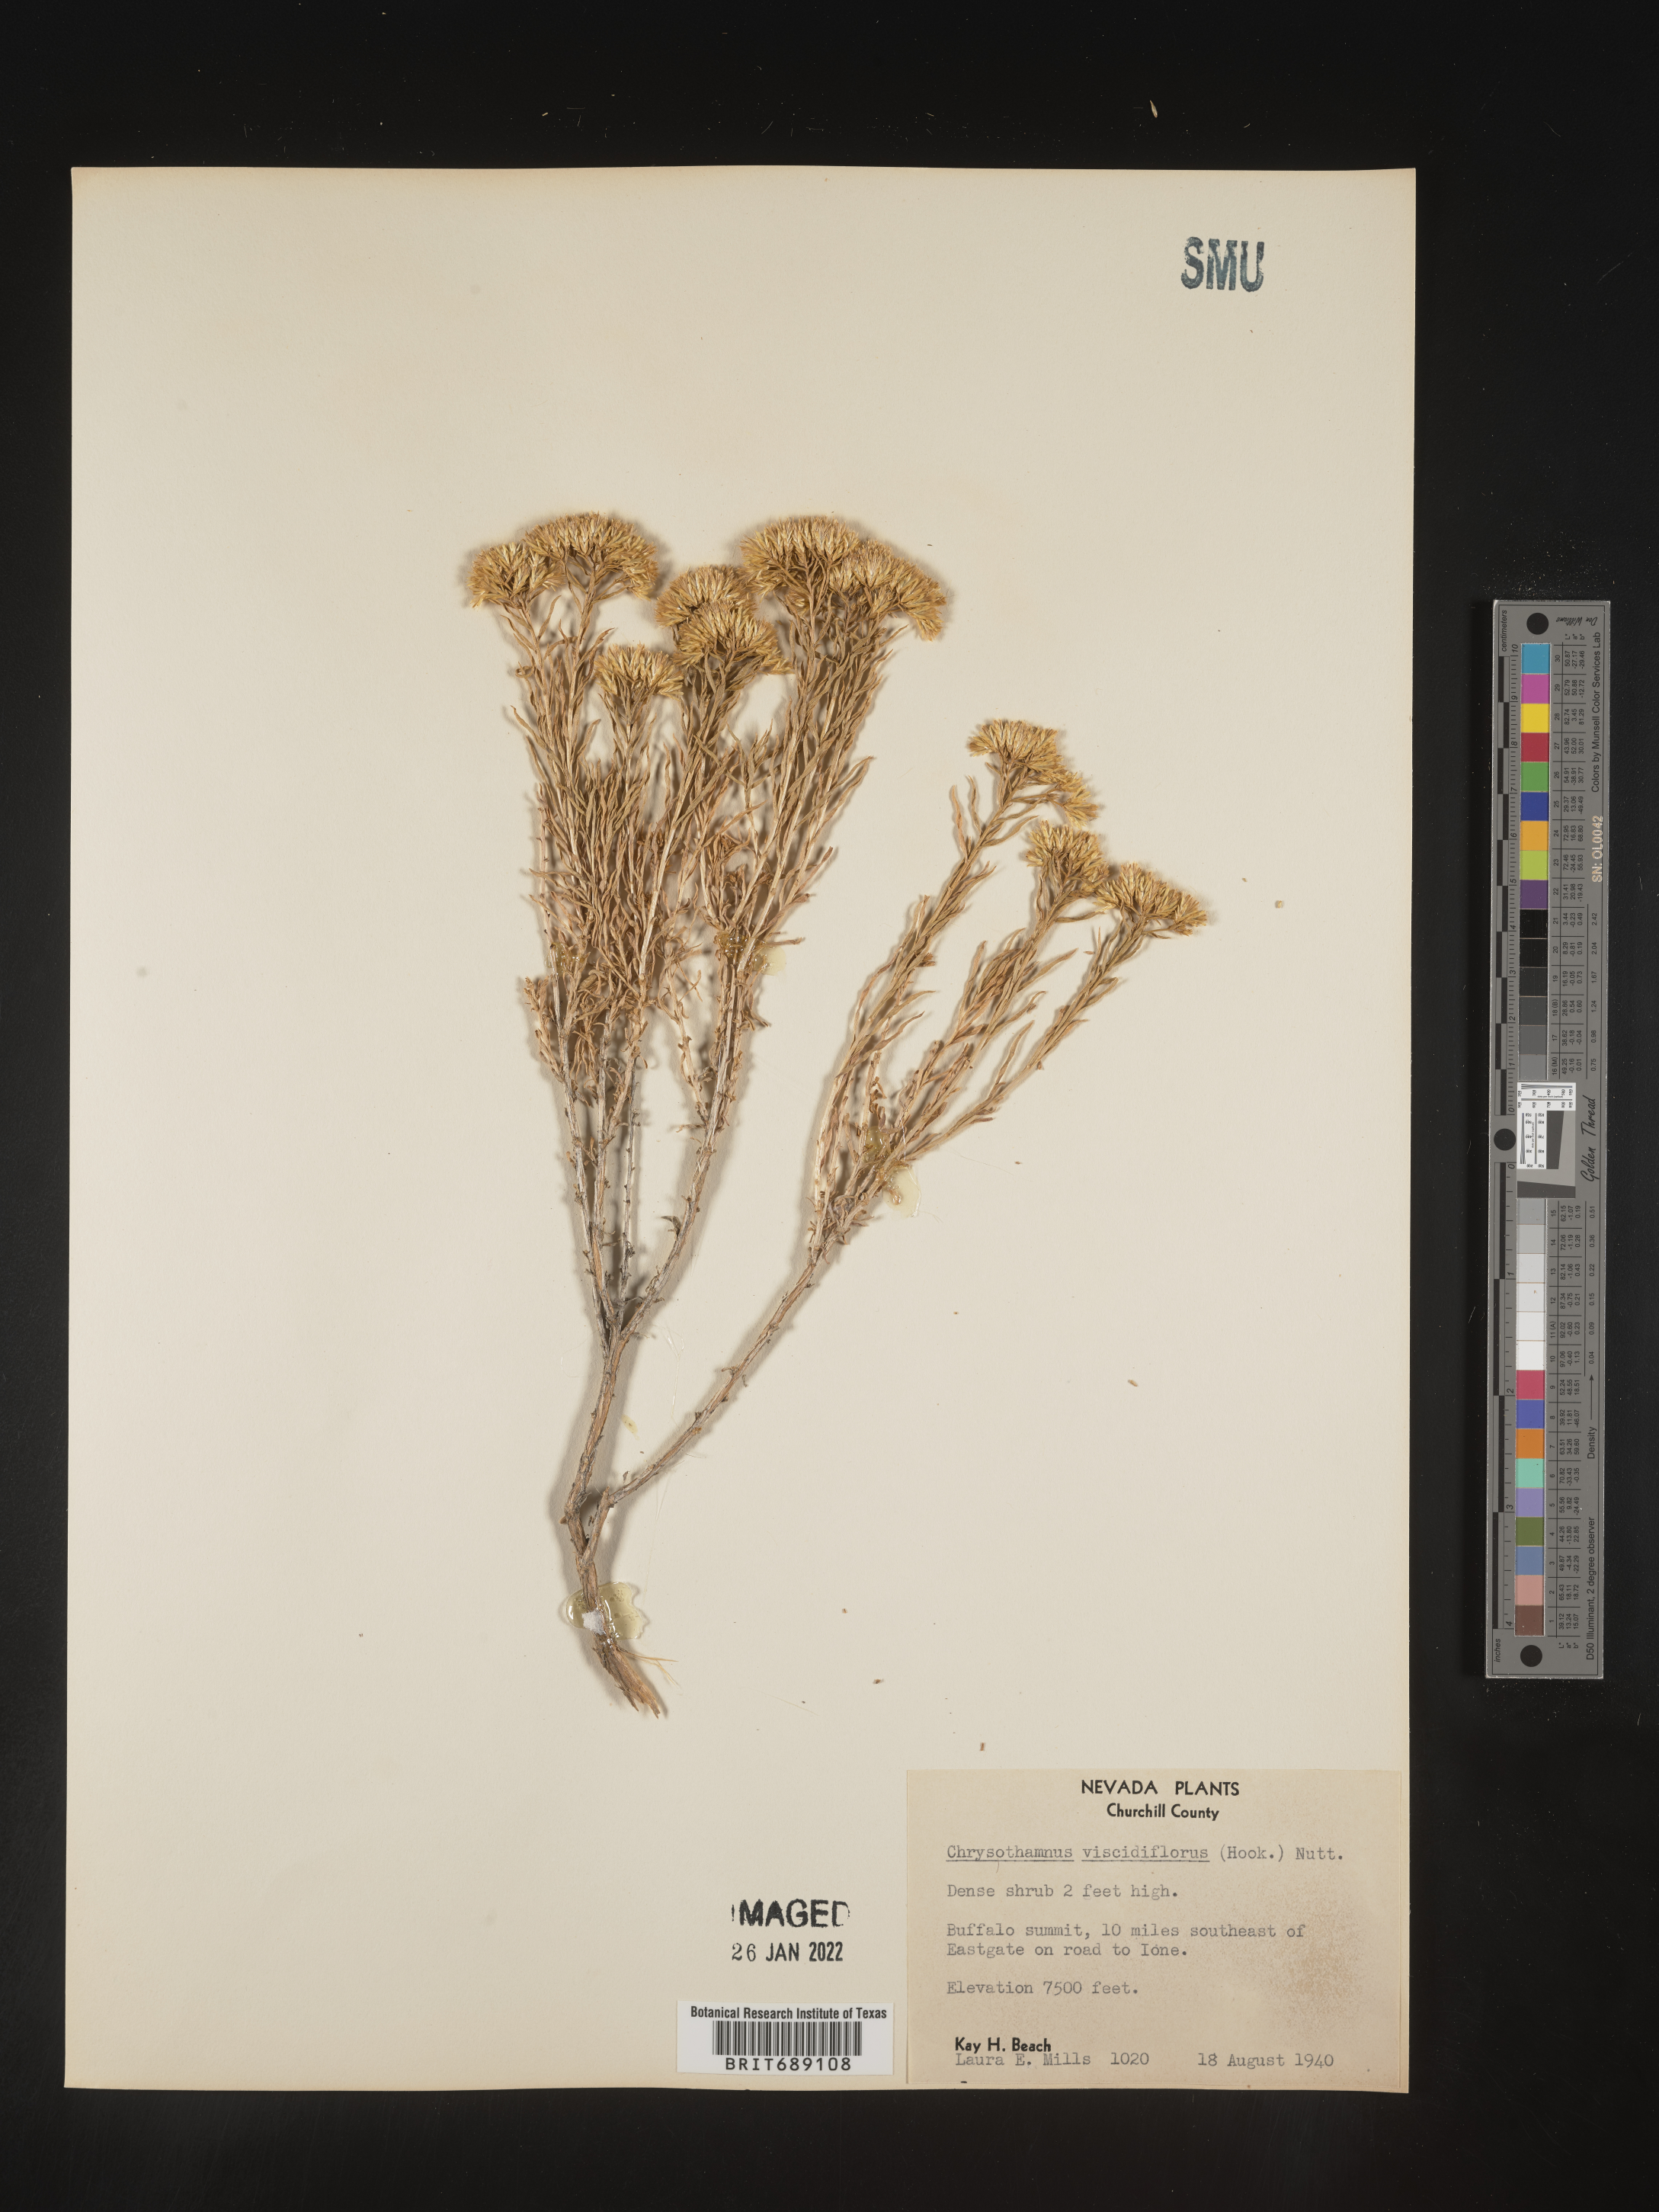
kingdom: Plantae
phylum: Tracheophyta
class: Magnoliopsida
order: Asterales
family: Asteraceae
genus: Chrysothamnus
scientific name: Chrysothamnus viscidiflorus
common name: Yellow rabbitbrush
